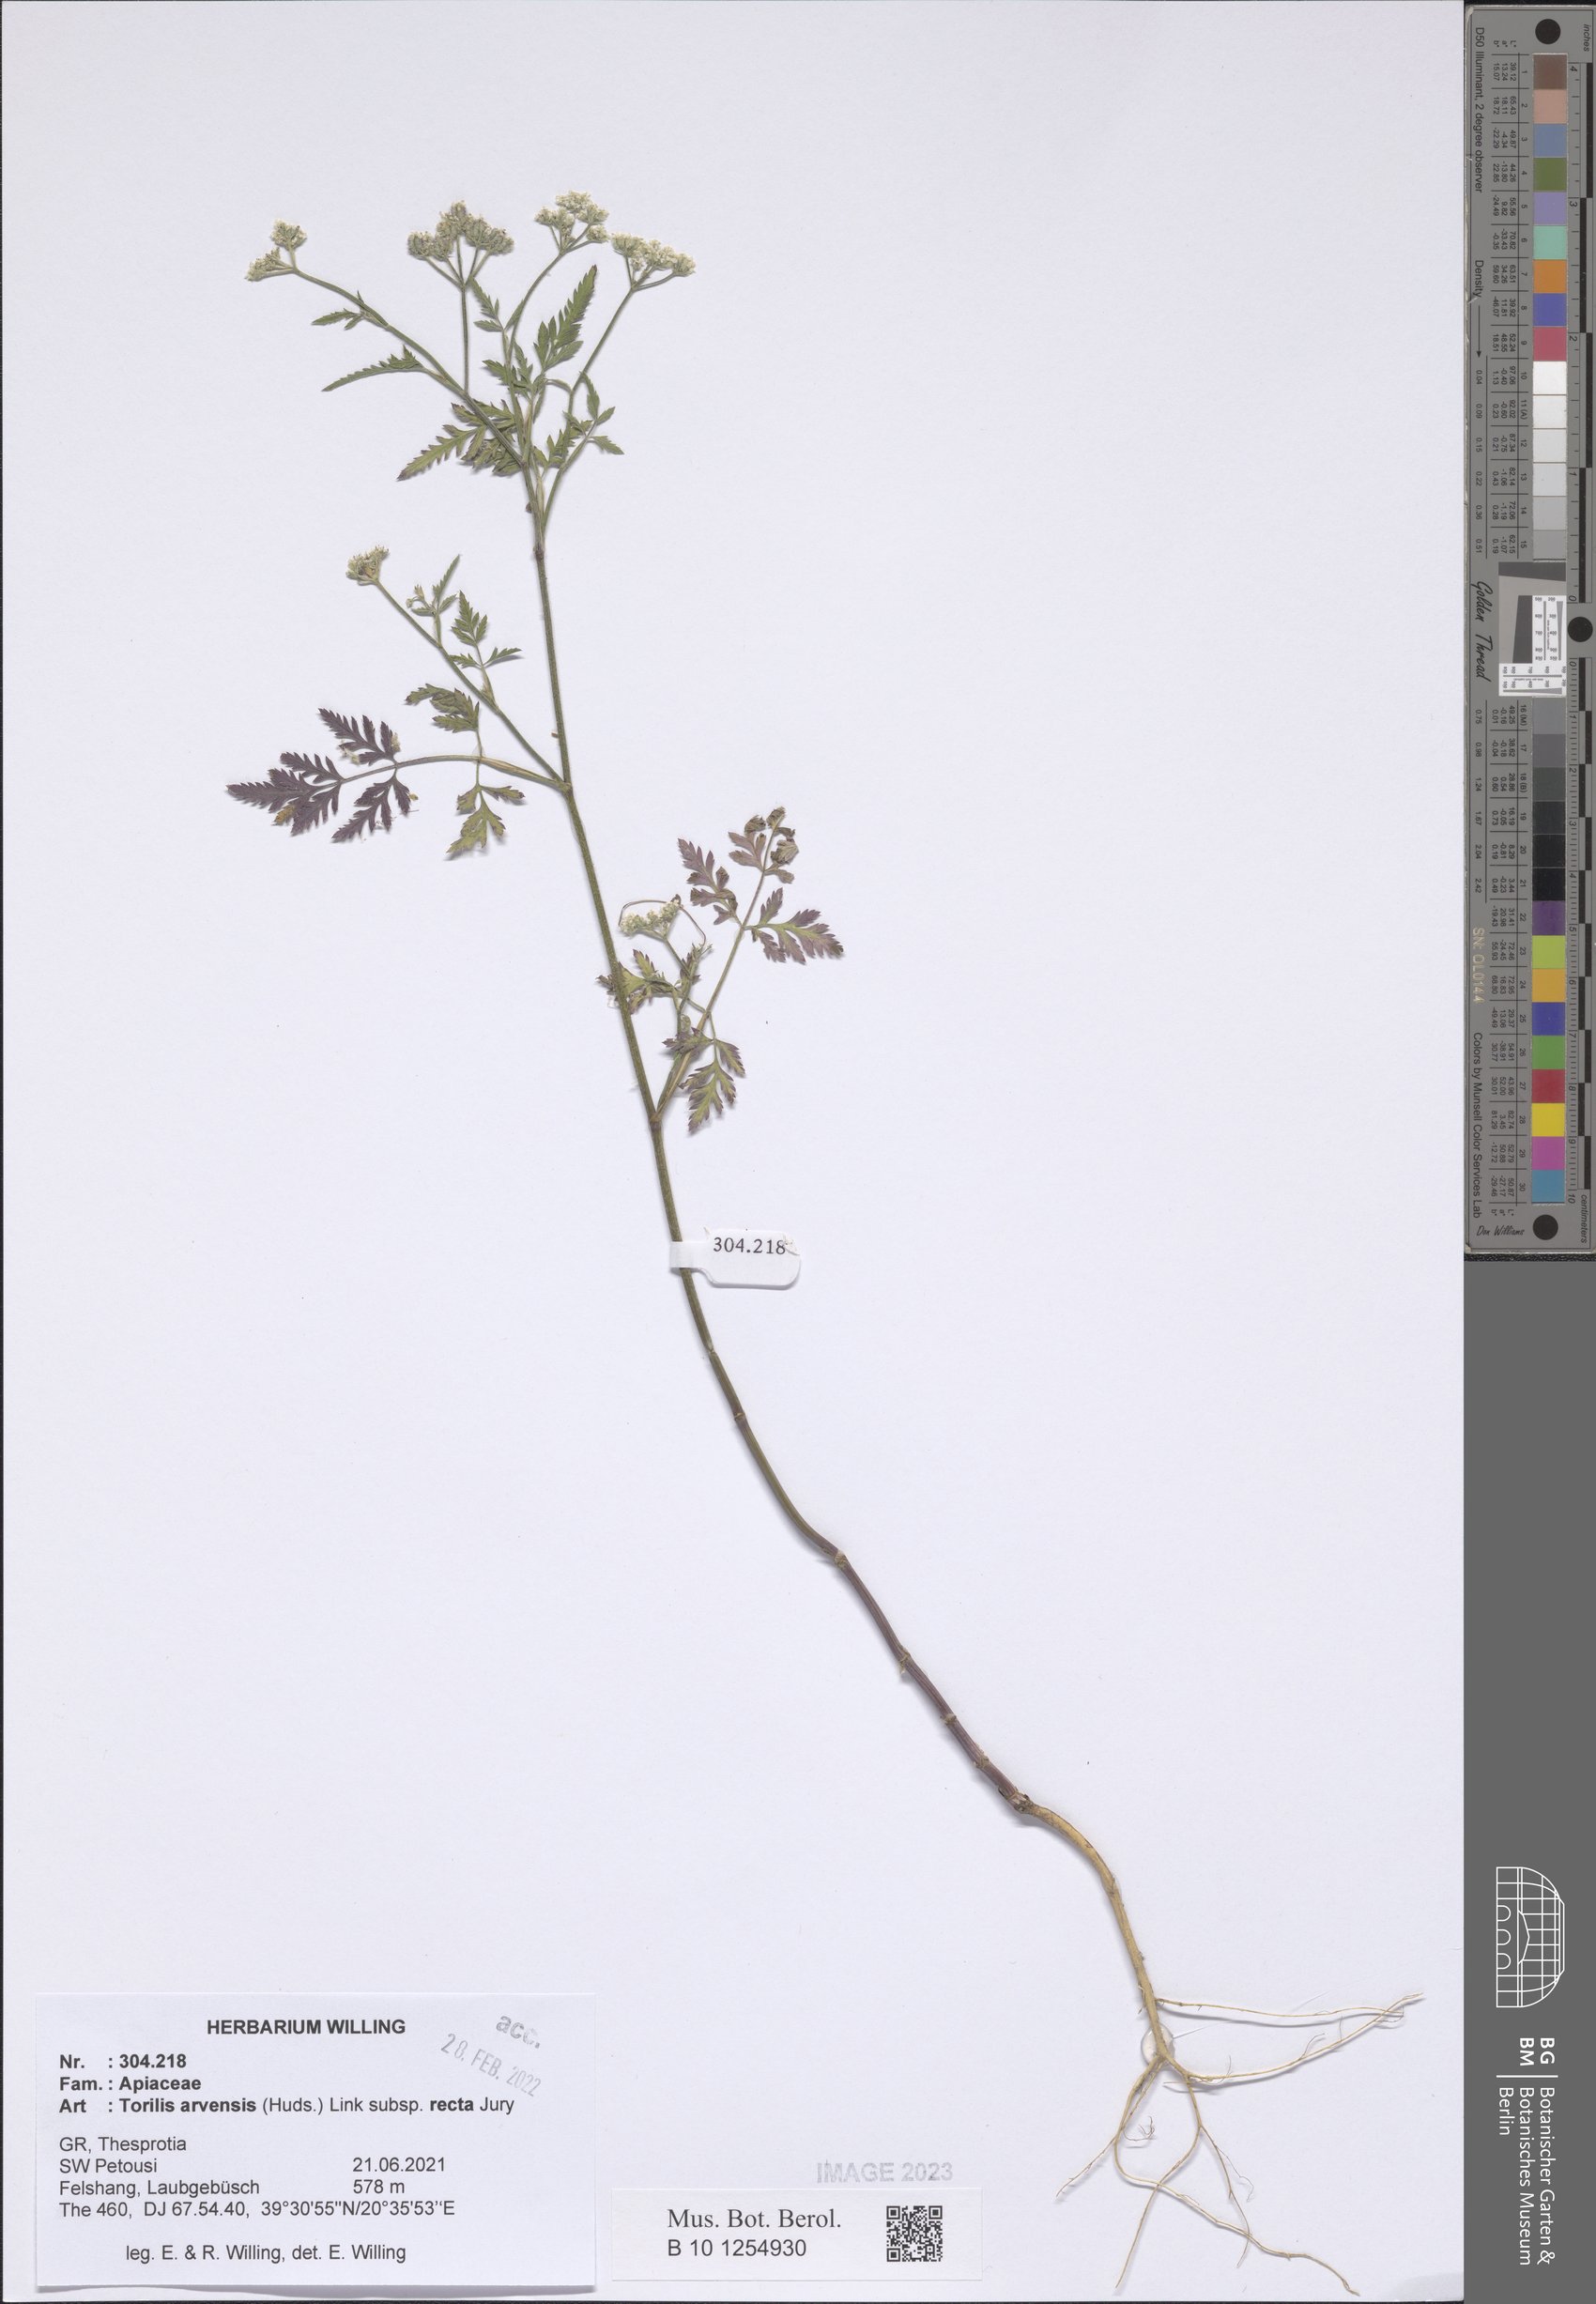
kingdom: Plantae
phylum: Tracheophyta
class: Magnoliopsida
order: Apiales
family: Apiaceae
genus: Torilis
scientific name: Torilis arvensis
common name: Spreading hedge-parsley
